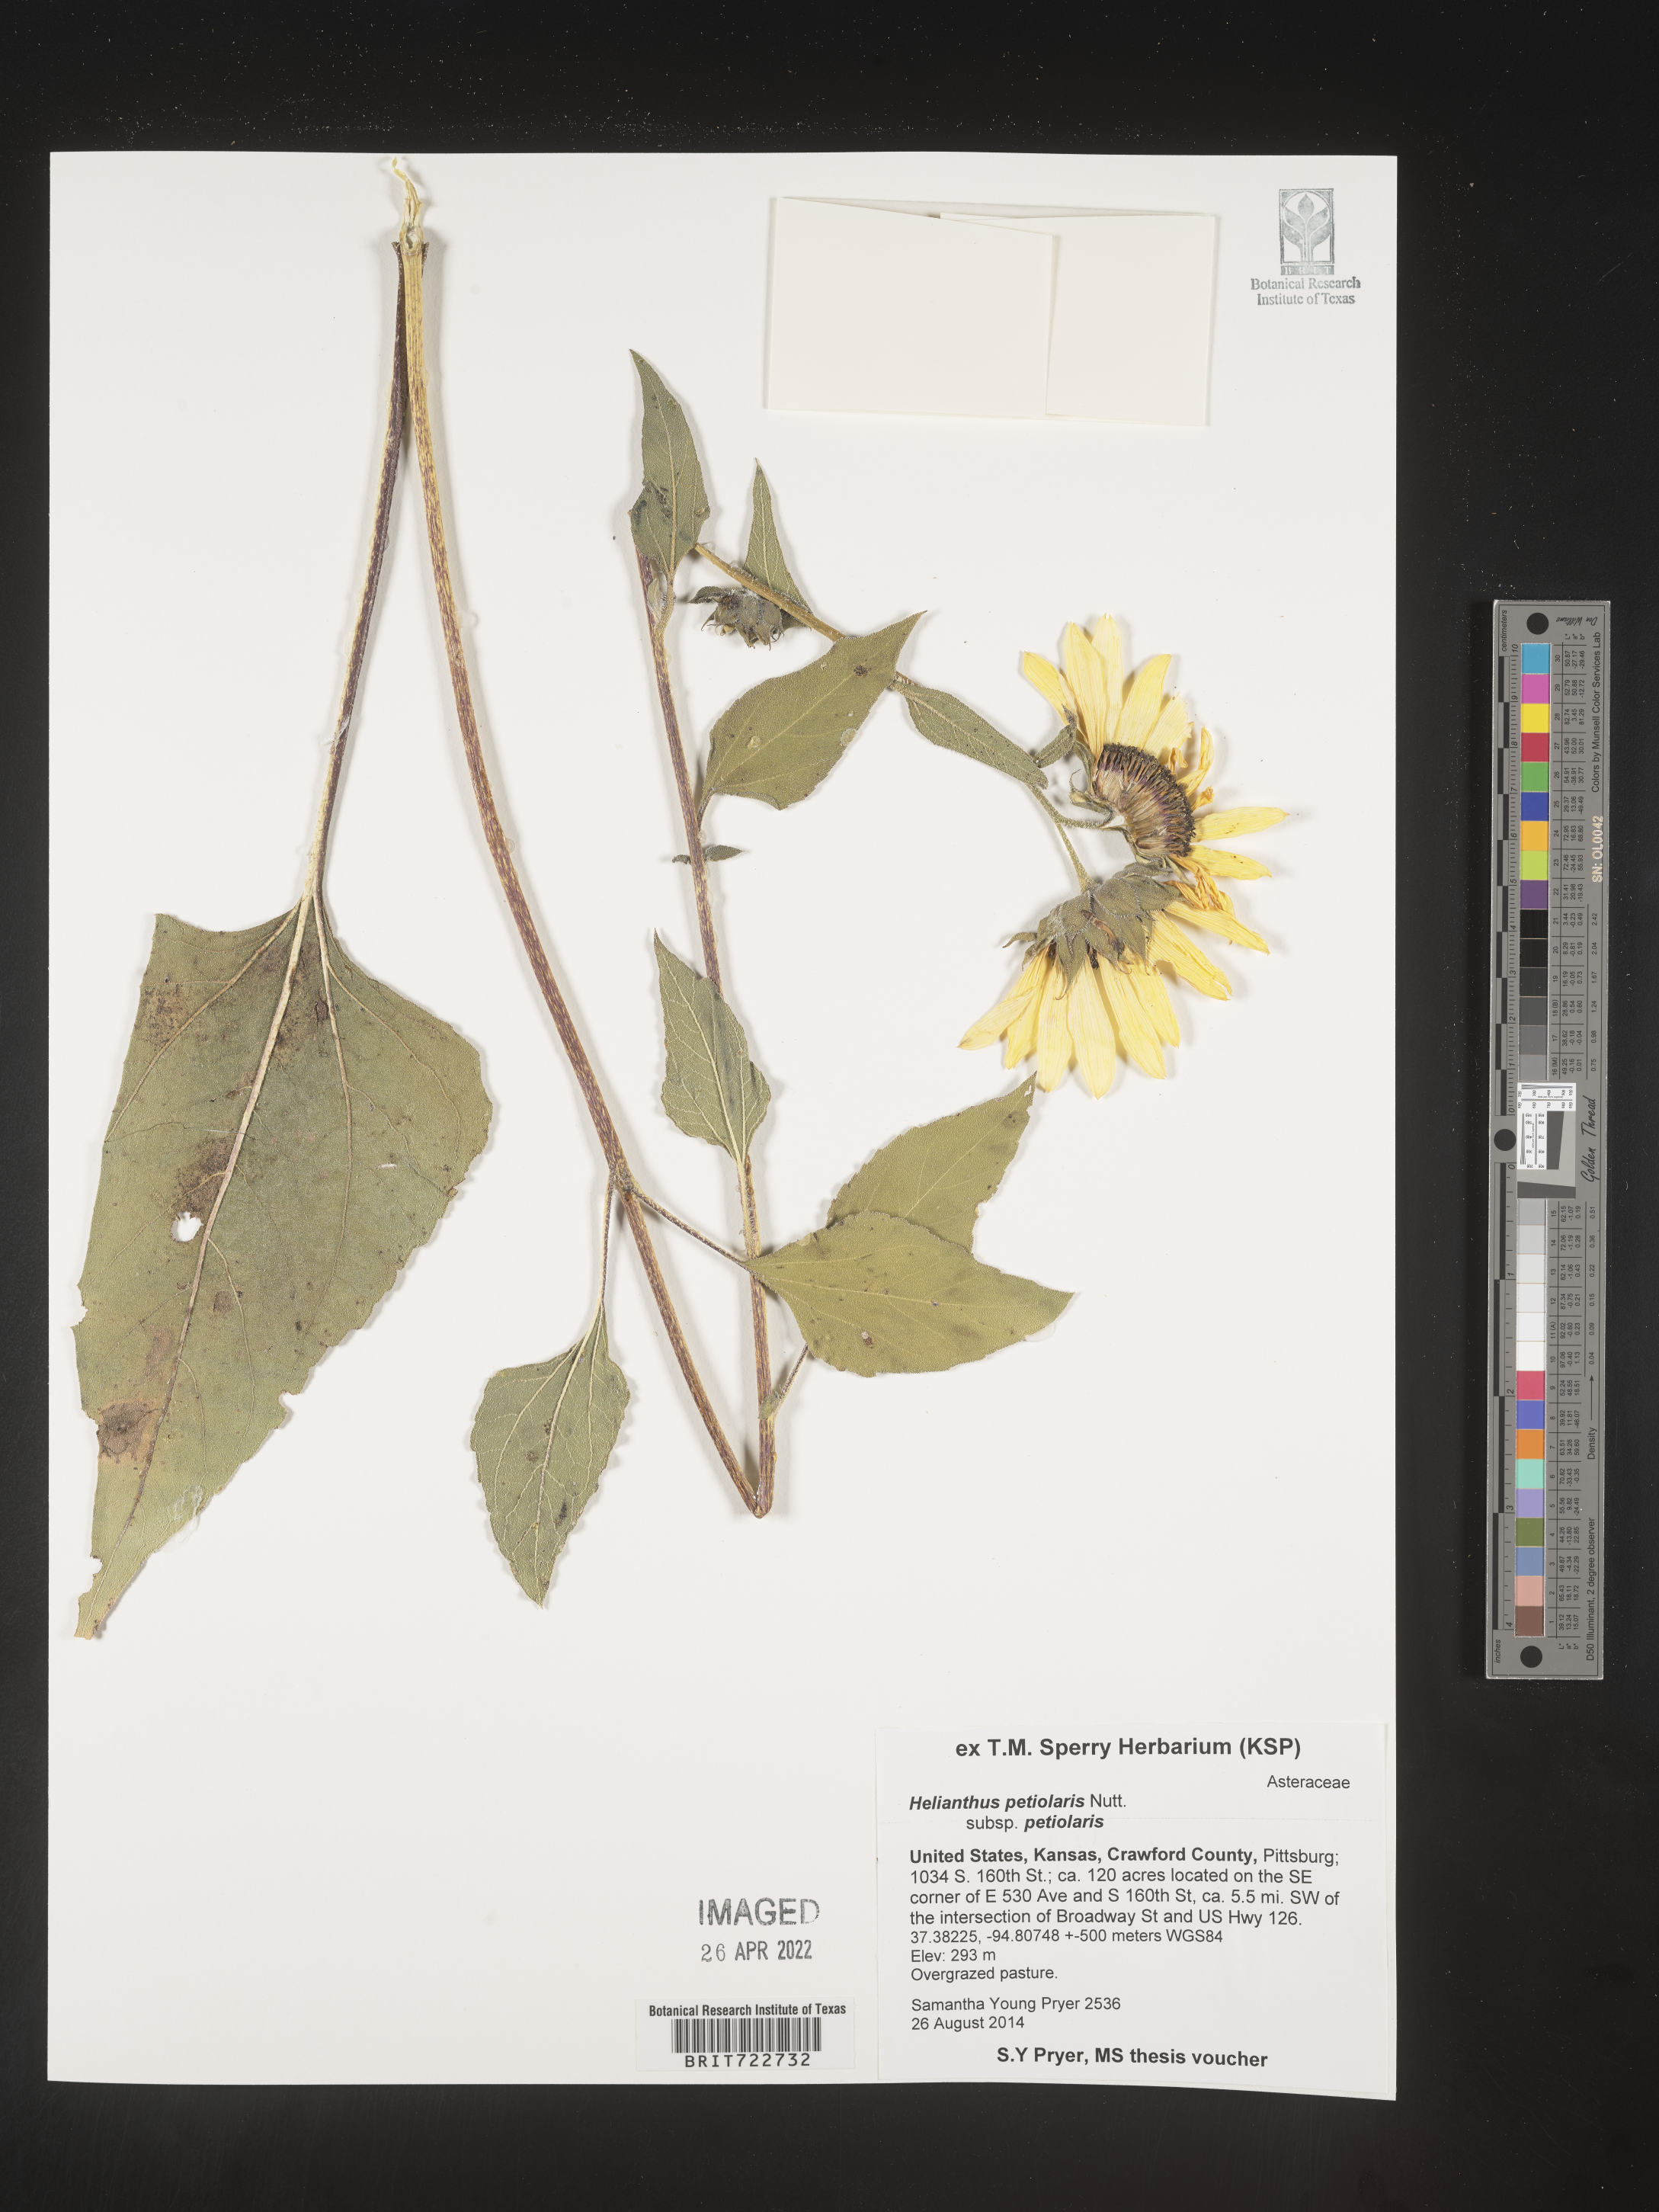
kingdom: Plantae
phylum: Tracheophyta
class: Magnoliopsida
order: Asterales
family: Asteraceae
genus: Helianthus
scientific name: Helianthus petiolaris
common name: Lesser sunflower
